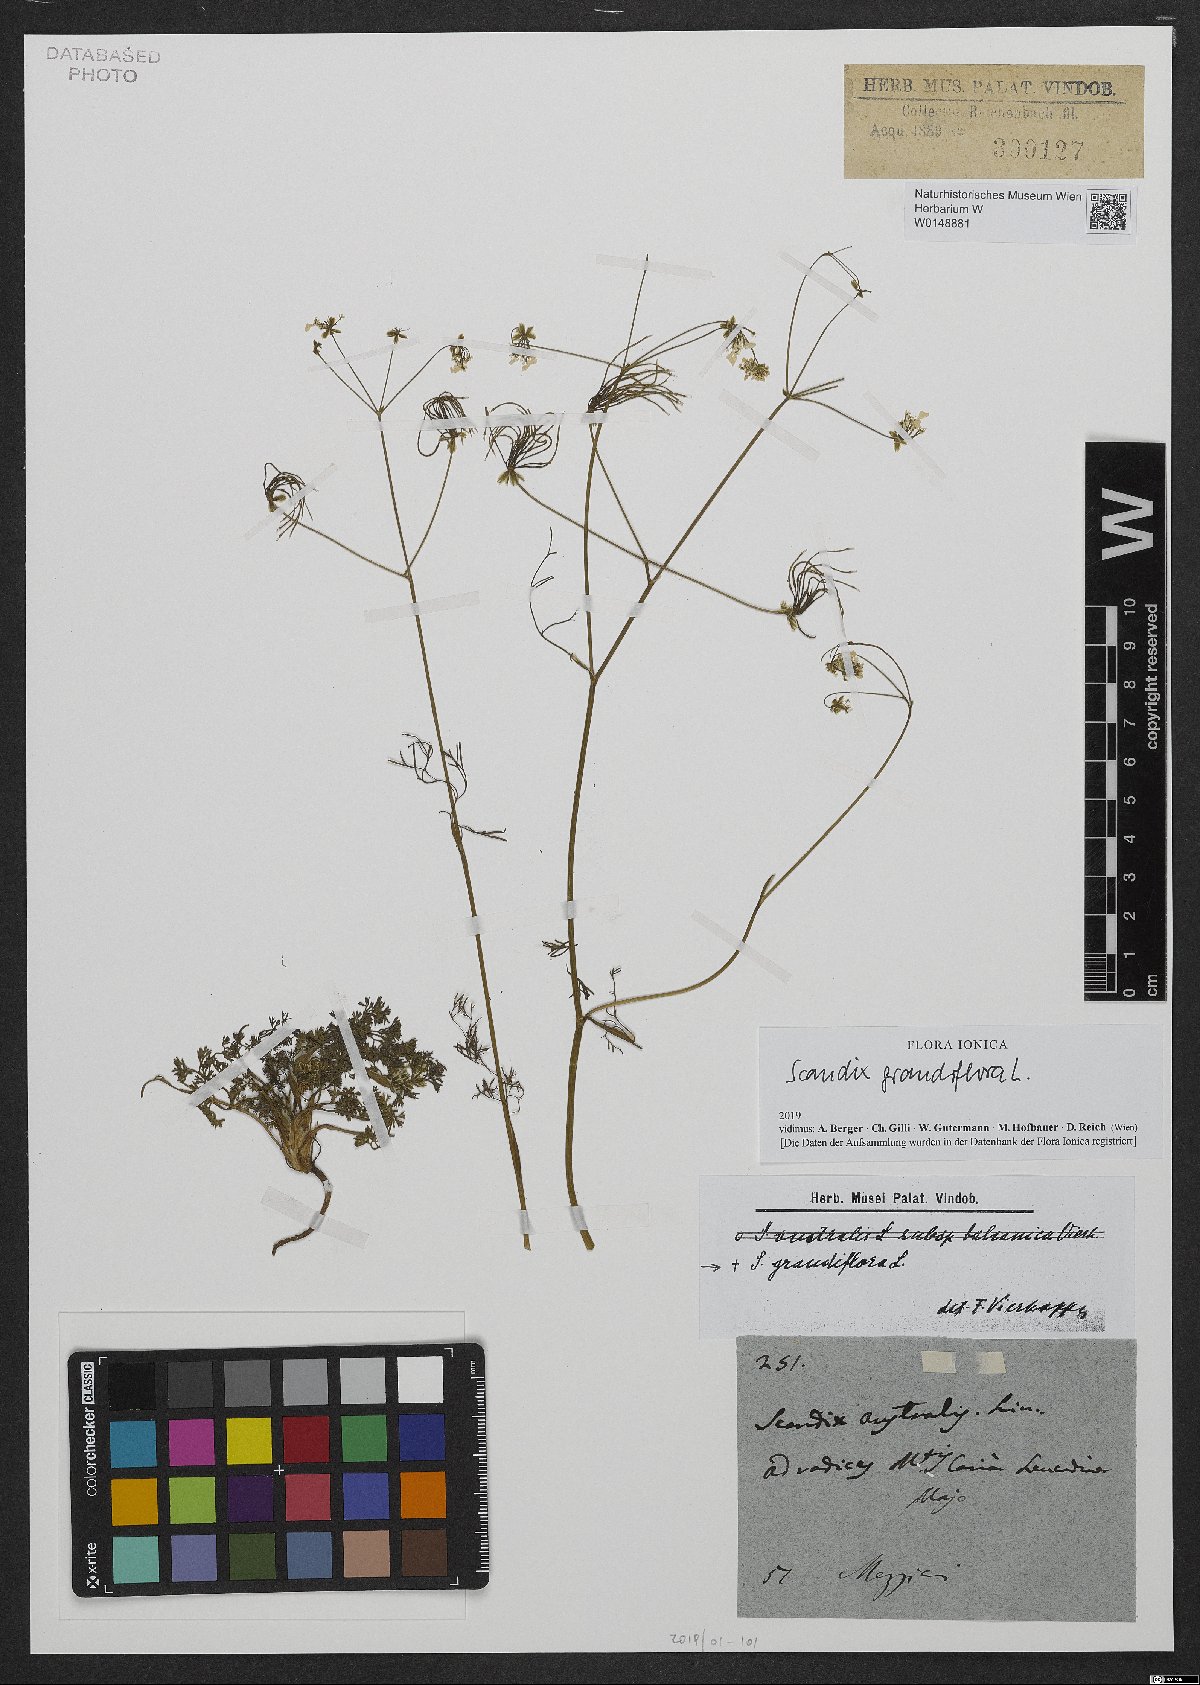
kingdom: Plantae
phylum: Tracheophyta
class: Magnoliopsida
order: Apiales
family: Apiaceae
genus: Scandix
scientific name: Scandix australis
